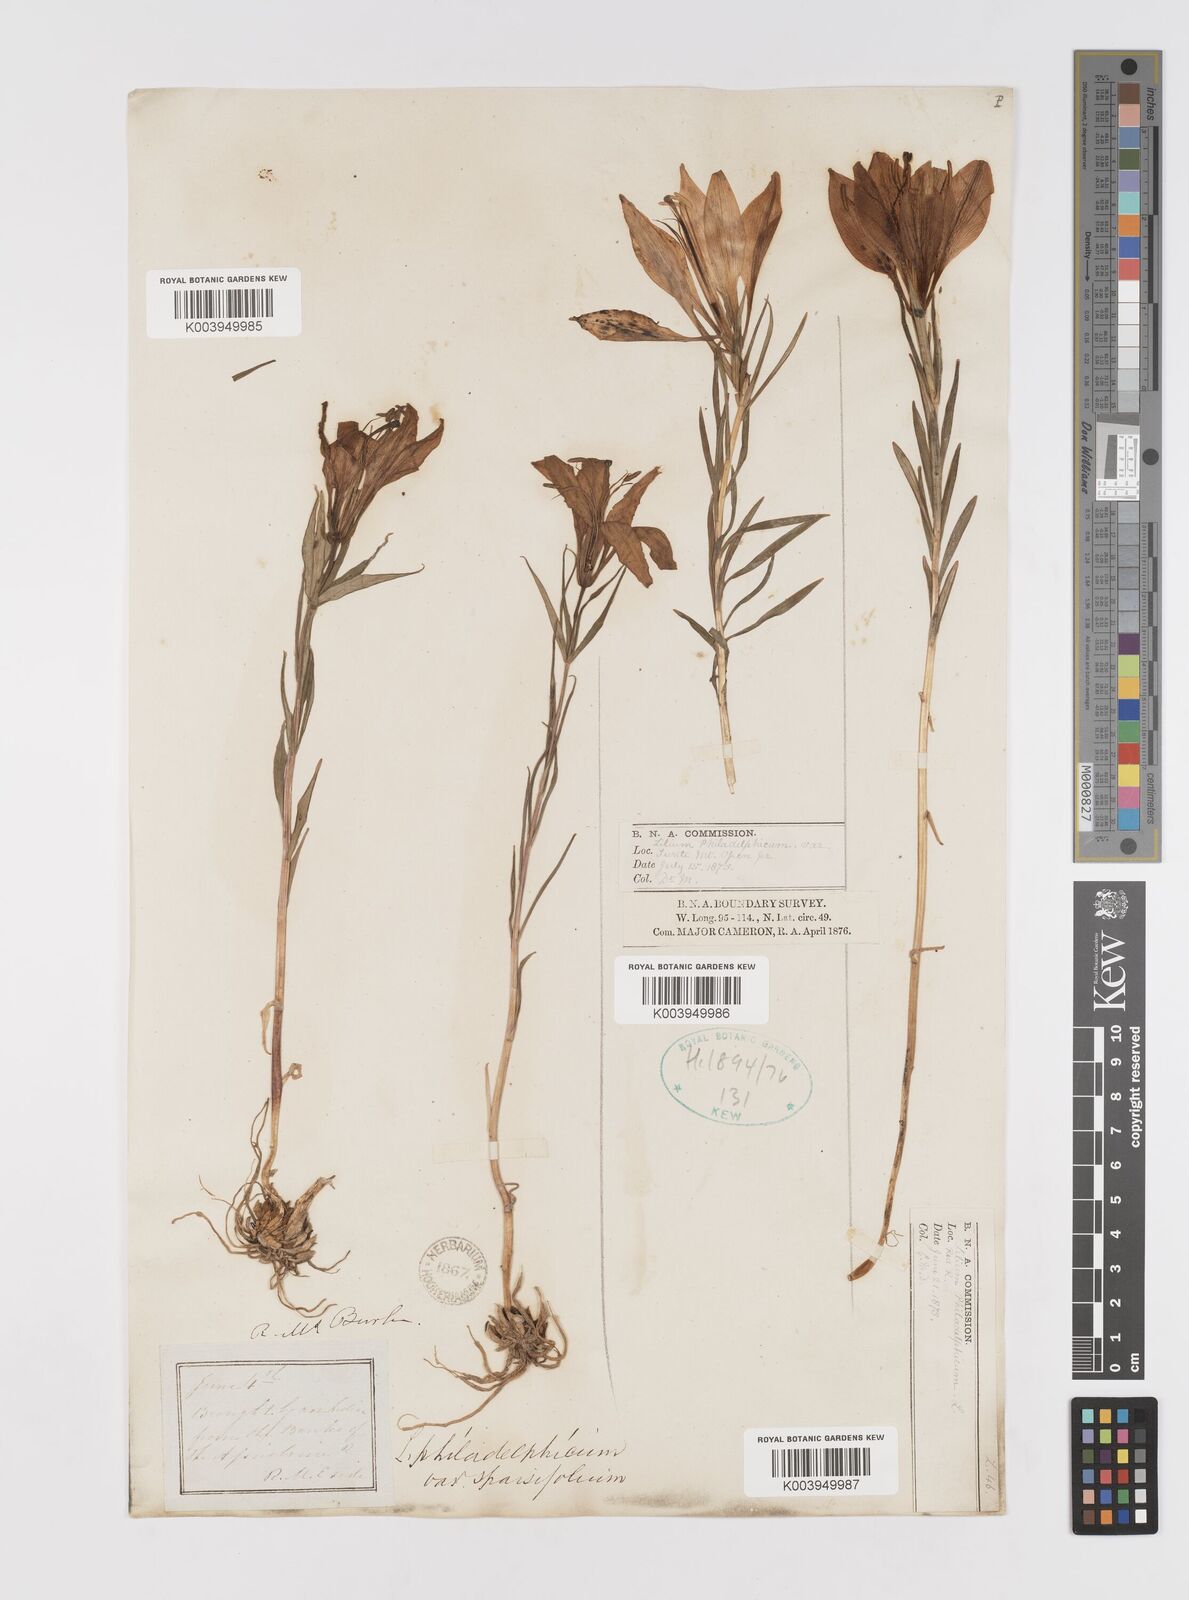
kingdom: Plantae
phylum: Tracheophyta
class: Liliopsida
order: Liliales
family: Liliaceae
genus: Lilium
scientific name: Lilium philadelphicum
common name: Red lily
